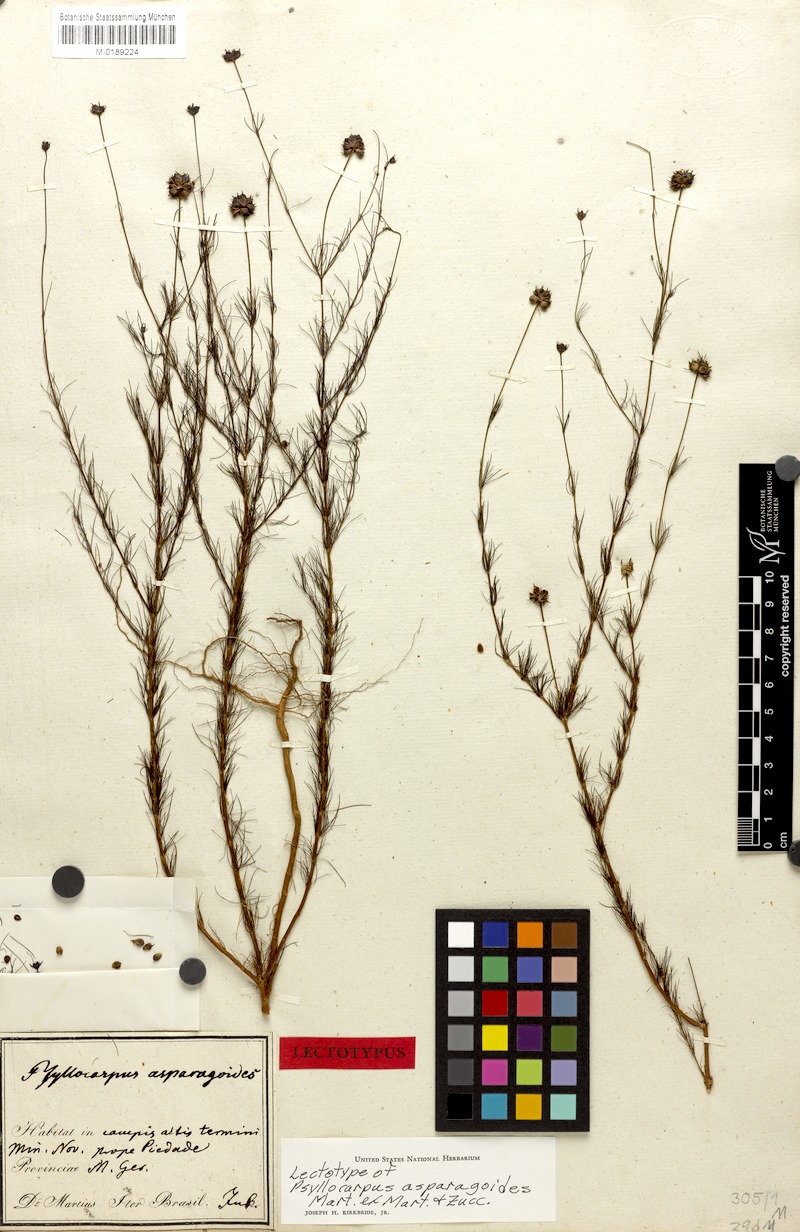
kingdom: Plantae
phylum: Tracheophyta
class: Magnoliopsida
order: Gentianales
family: Rubiaceae
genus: Psyllocarpus
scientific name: Psyllocarpus asparagoides
